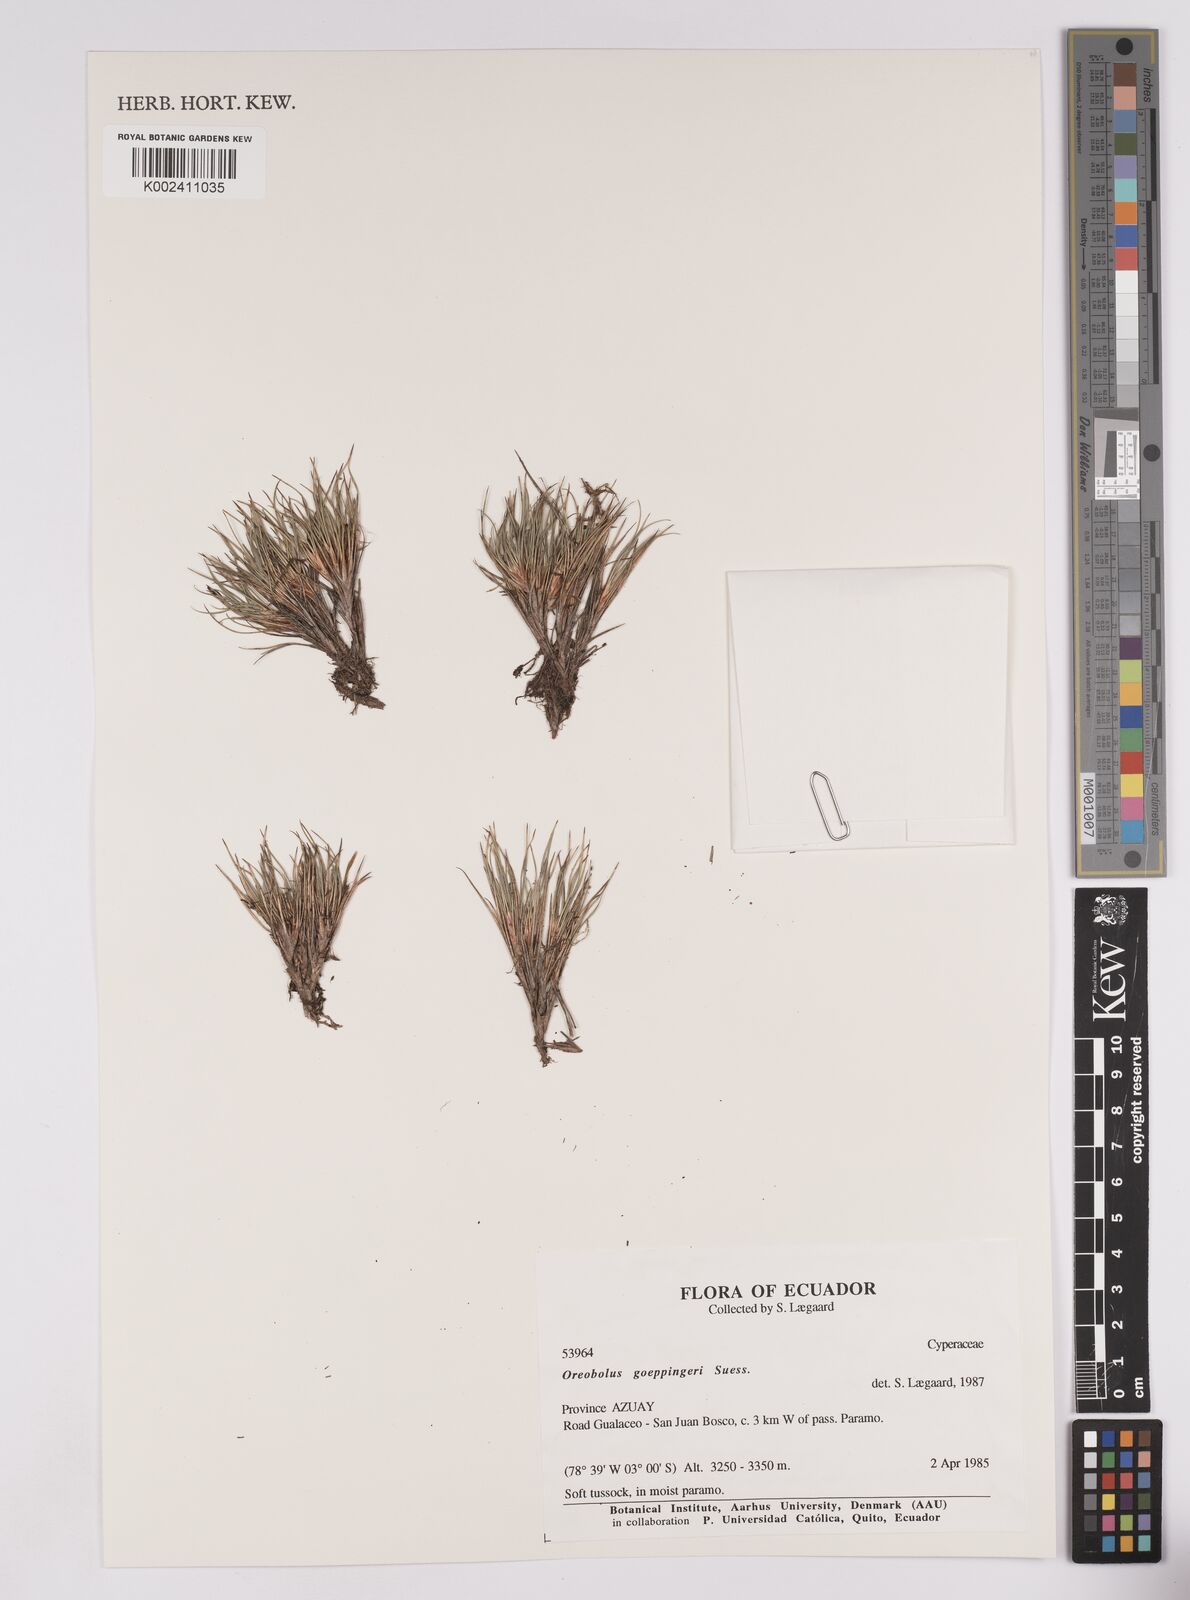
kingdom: Plantae
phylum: Tracheophyta
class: Liliopsida
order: Poales
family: Cyperaceae
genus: Oreobolus
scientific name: Oreobolus goeppingeri
